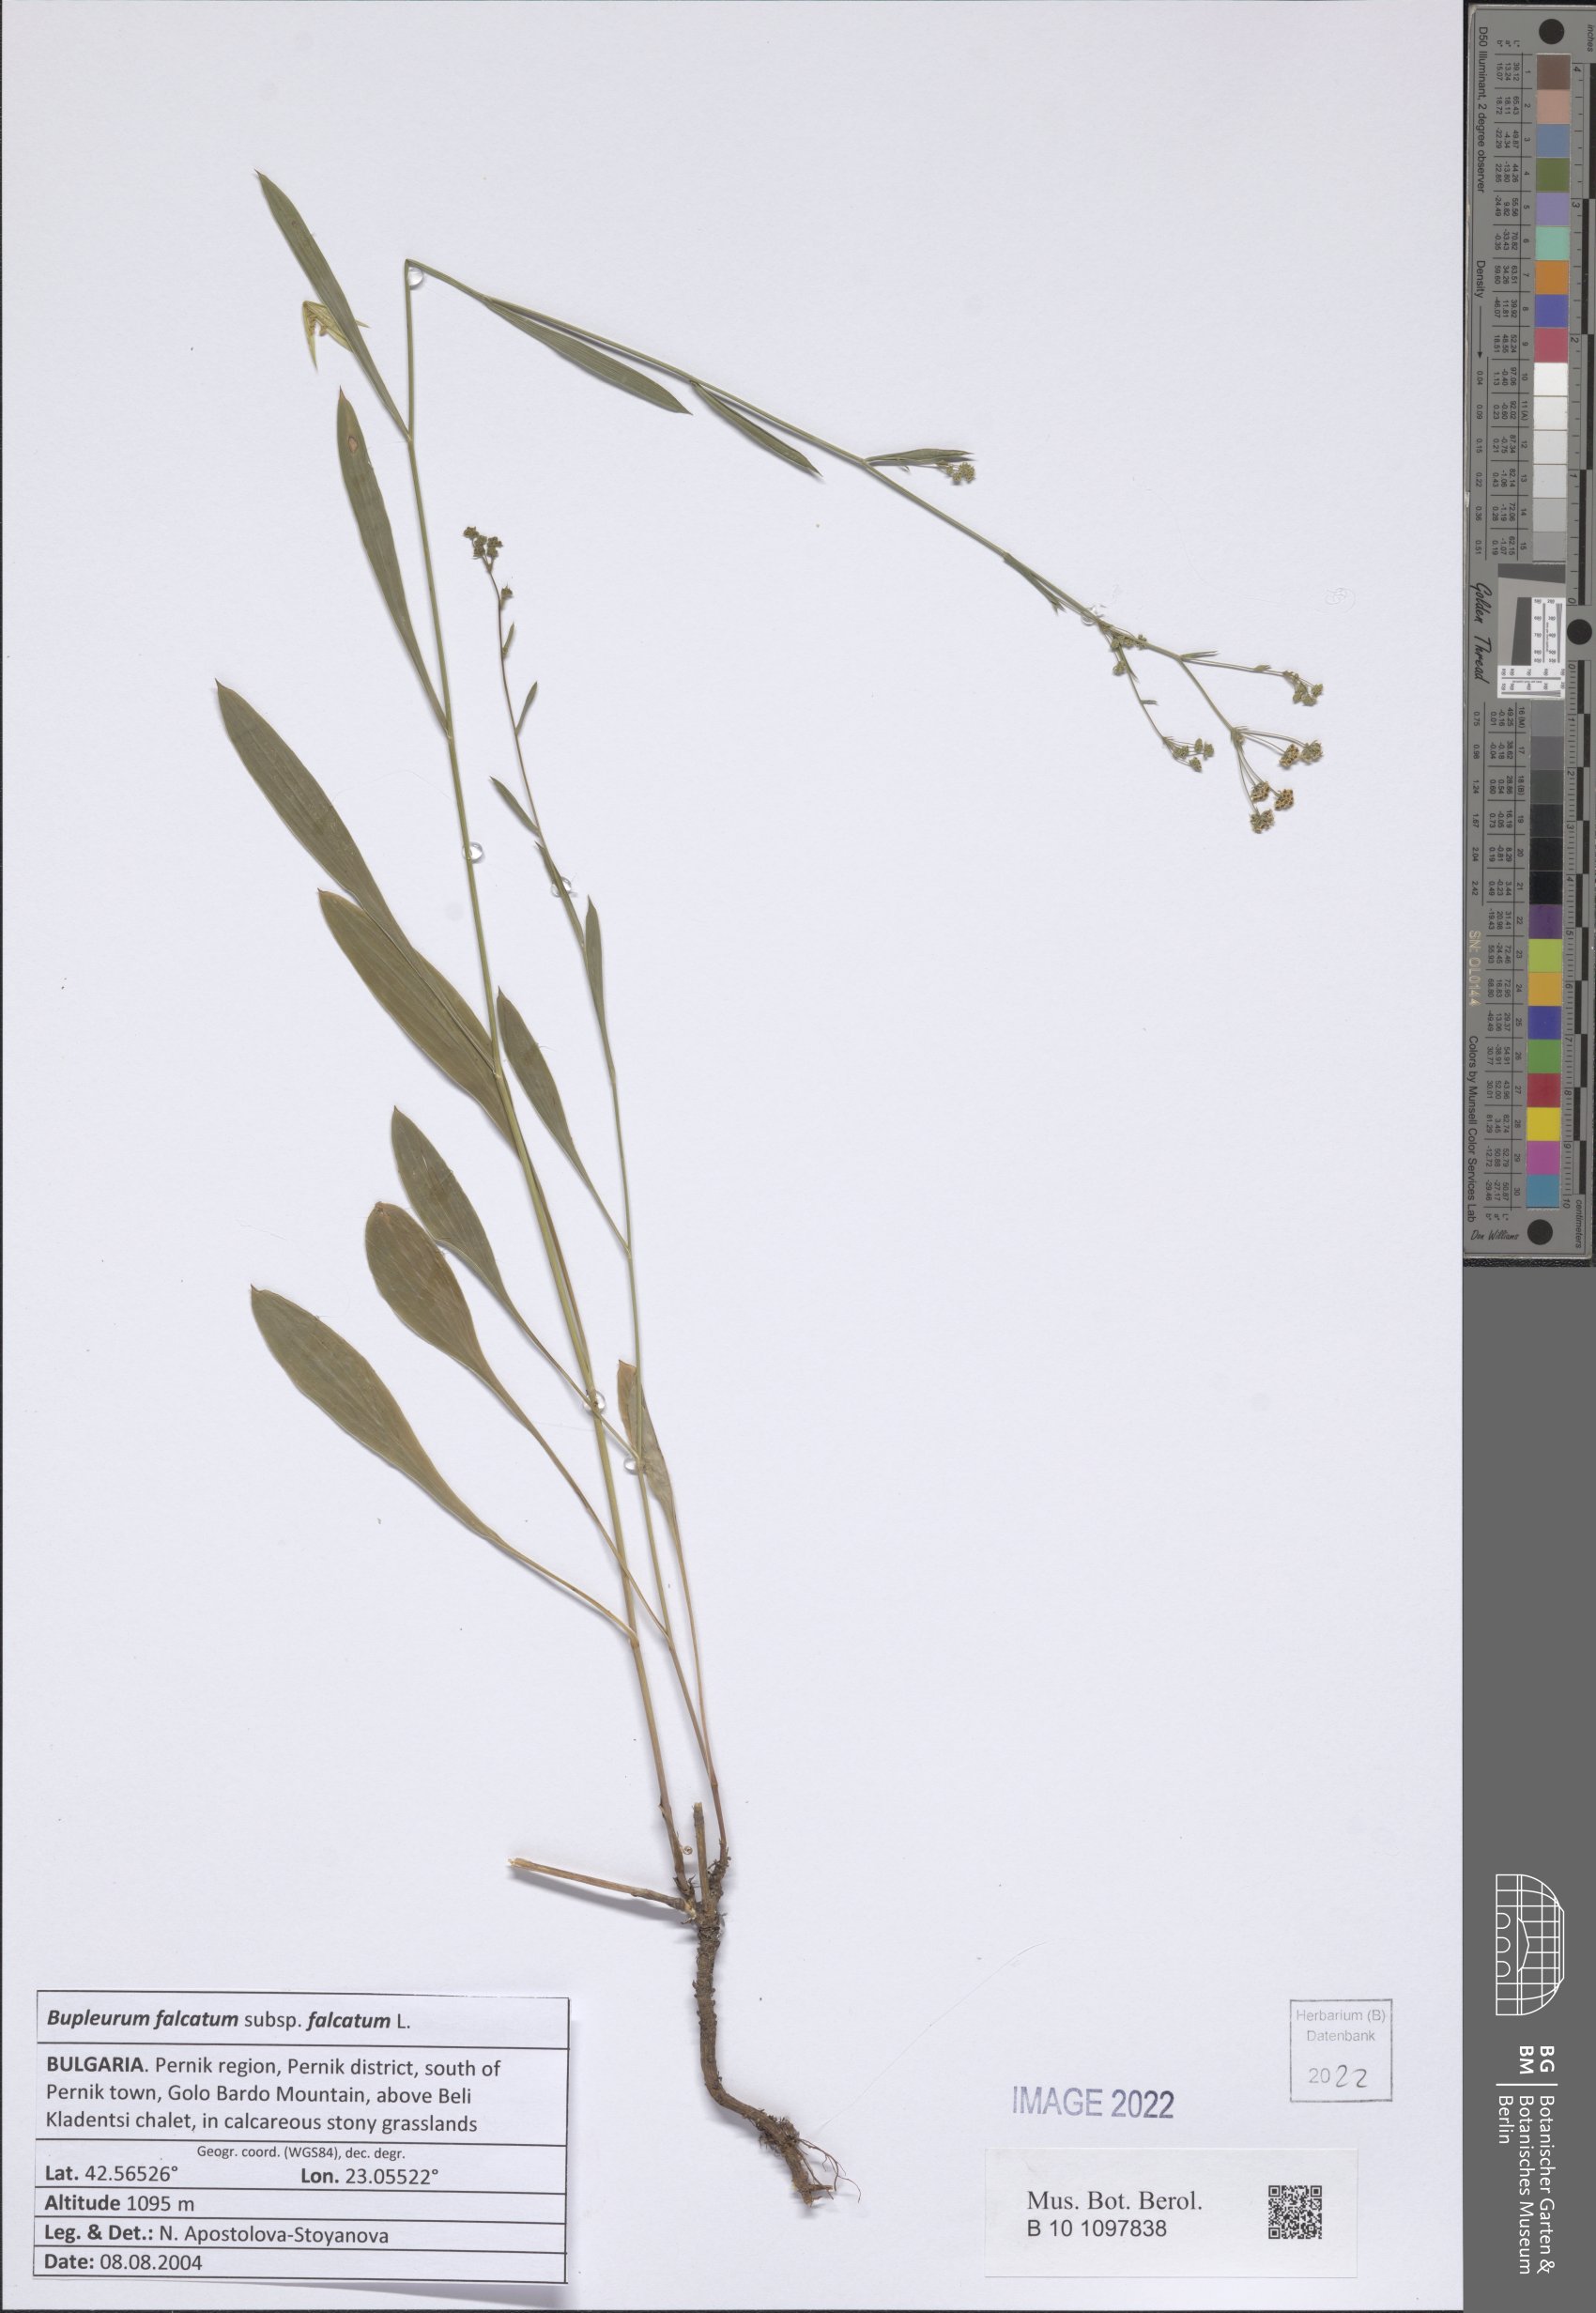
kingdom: Plantae
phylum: Tracheophyta
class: Magnoliopsida
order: Apiales
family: Apiaceae
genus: Bupleurum
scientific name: Bupleurum falcatum
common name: Sickle-leaved hare's-ear
